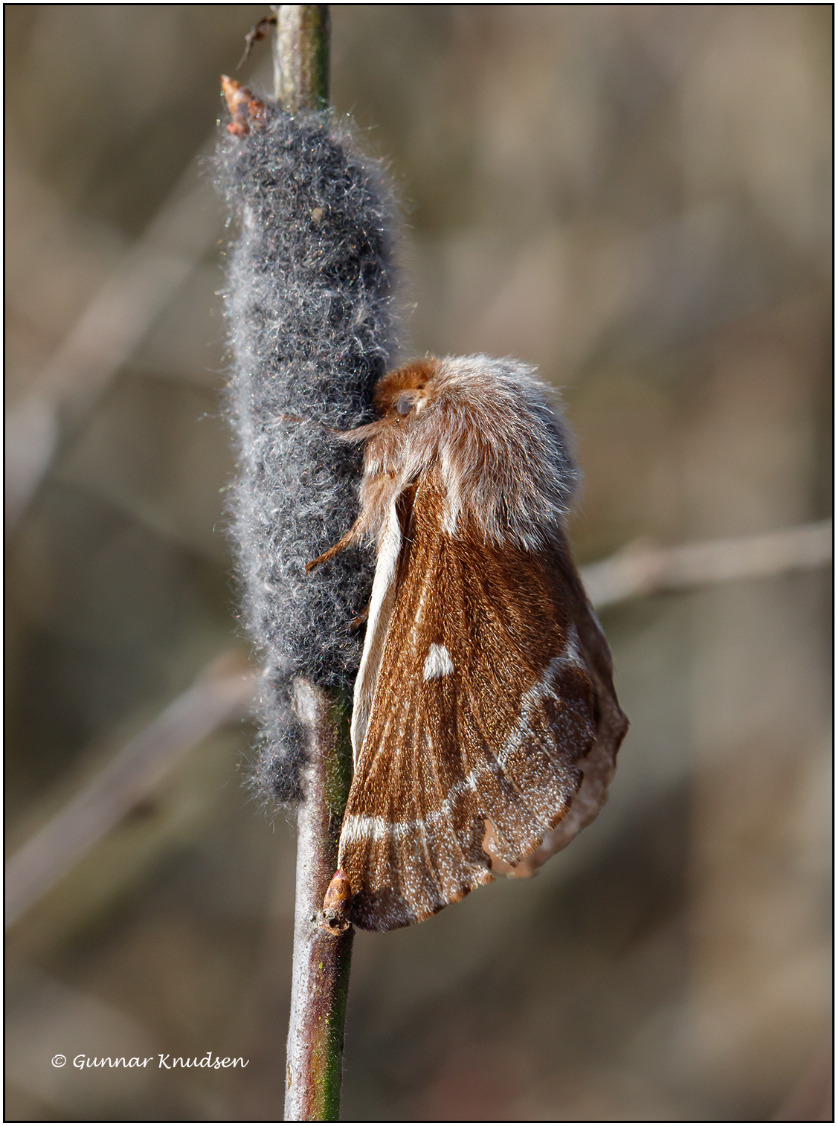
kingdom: Animalia
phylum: Arthropoda
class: Insecta
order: Lepidoptera
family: Lasiocampidae
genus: Eriogaster
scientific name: Eriogaster lanestris
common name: Uldhale
